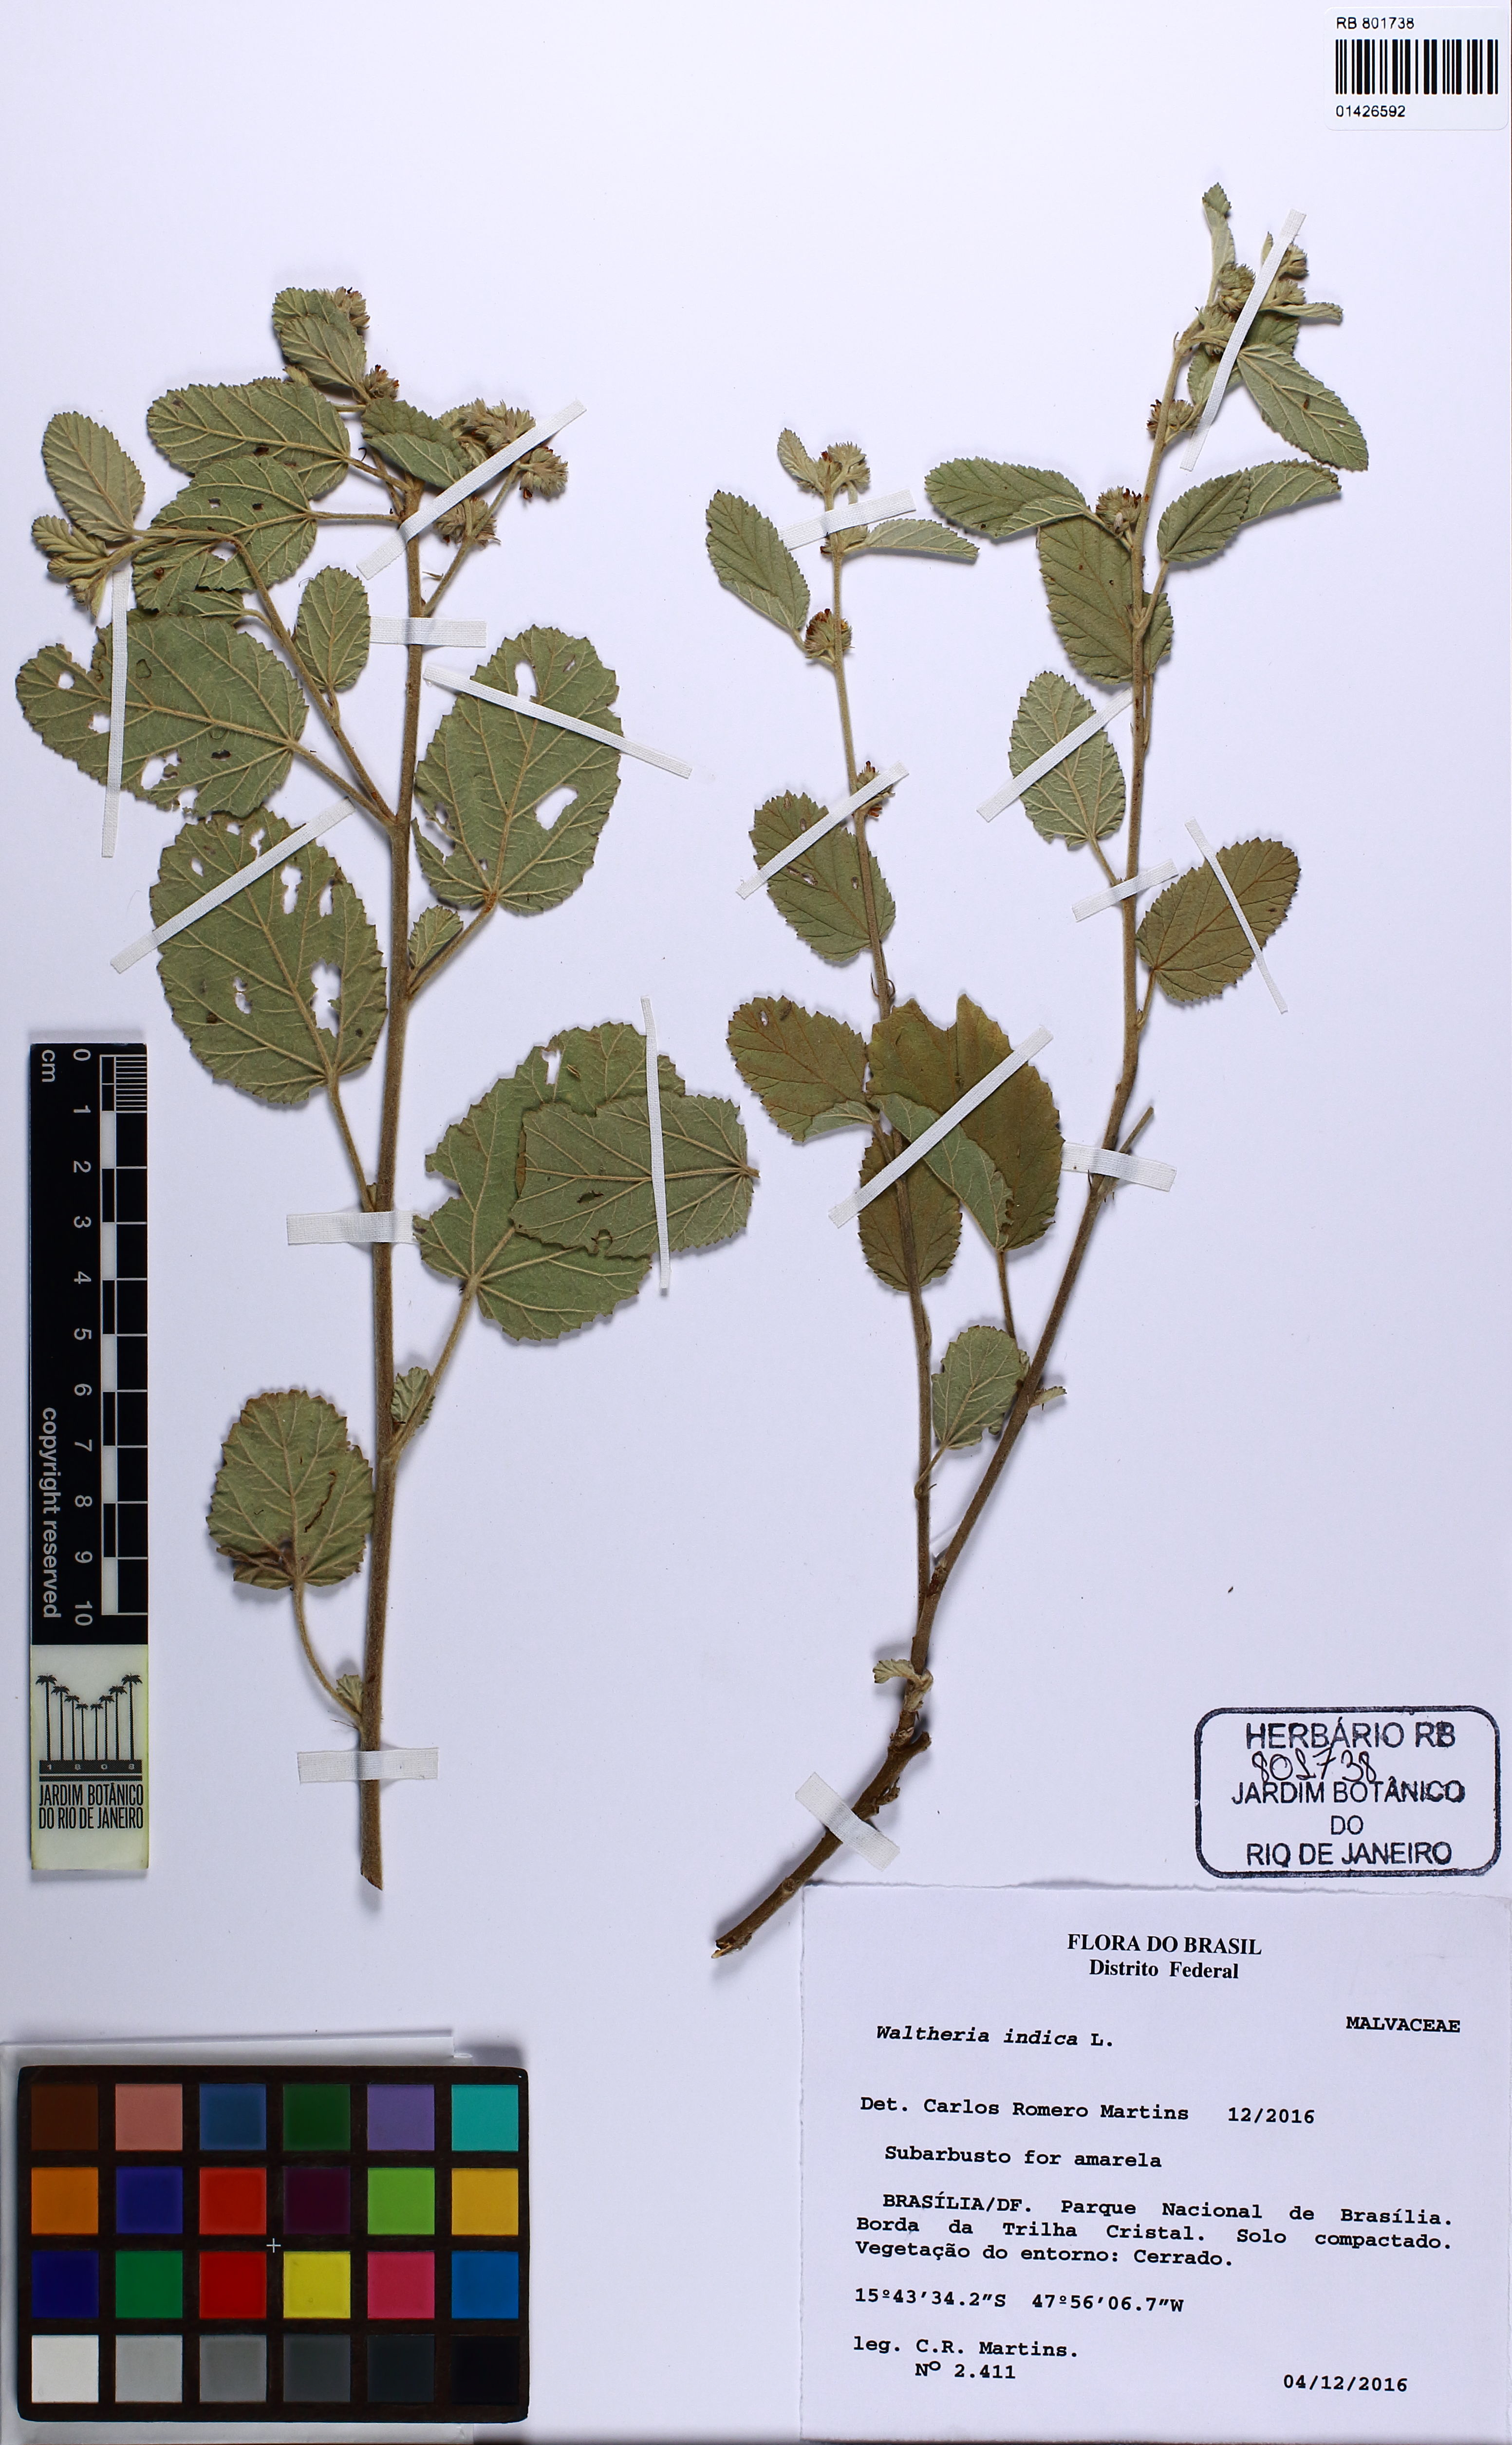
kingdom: Plantae
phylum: Tracheophyta
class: Magnoliopsida
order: Malvales
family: Malvaceae
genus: Waltheria
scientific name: Waltheria indica
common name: Leather-coat
